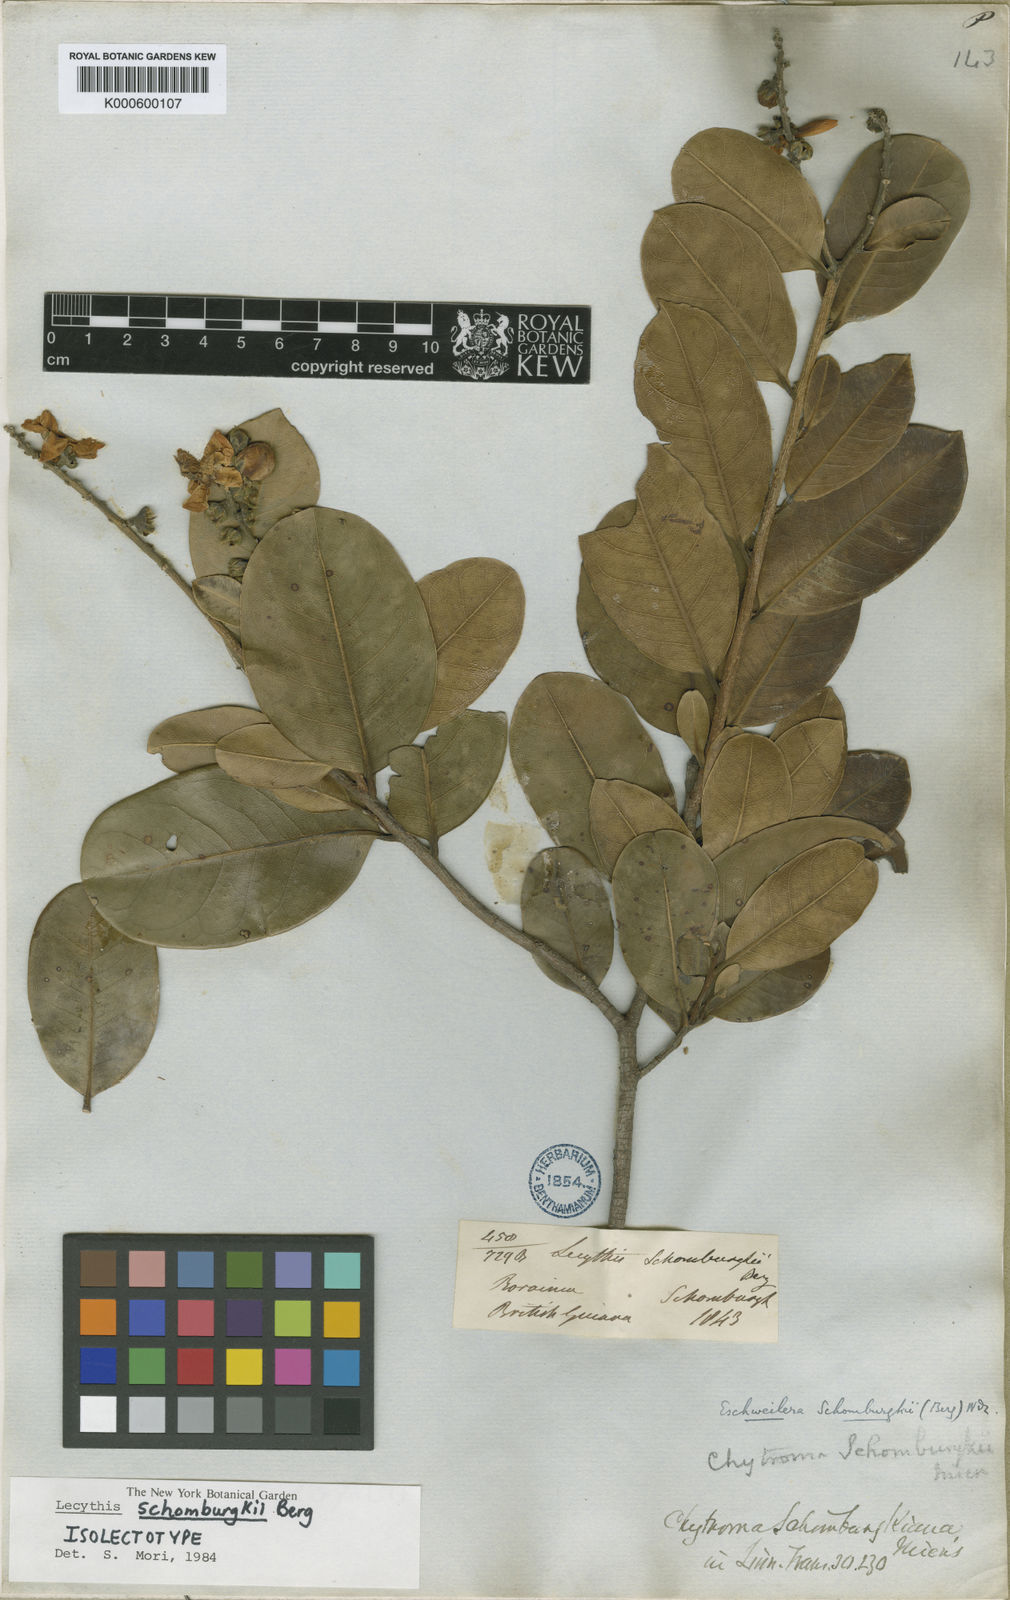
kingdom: Plantae
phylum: Tracheophyta
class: Magnoliopsida
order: Ericales
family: Lecythidaceae
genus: Lecythis
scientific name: Lecythis schomburgkii
